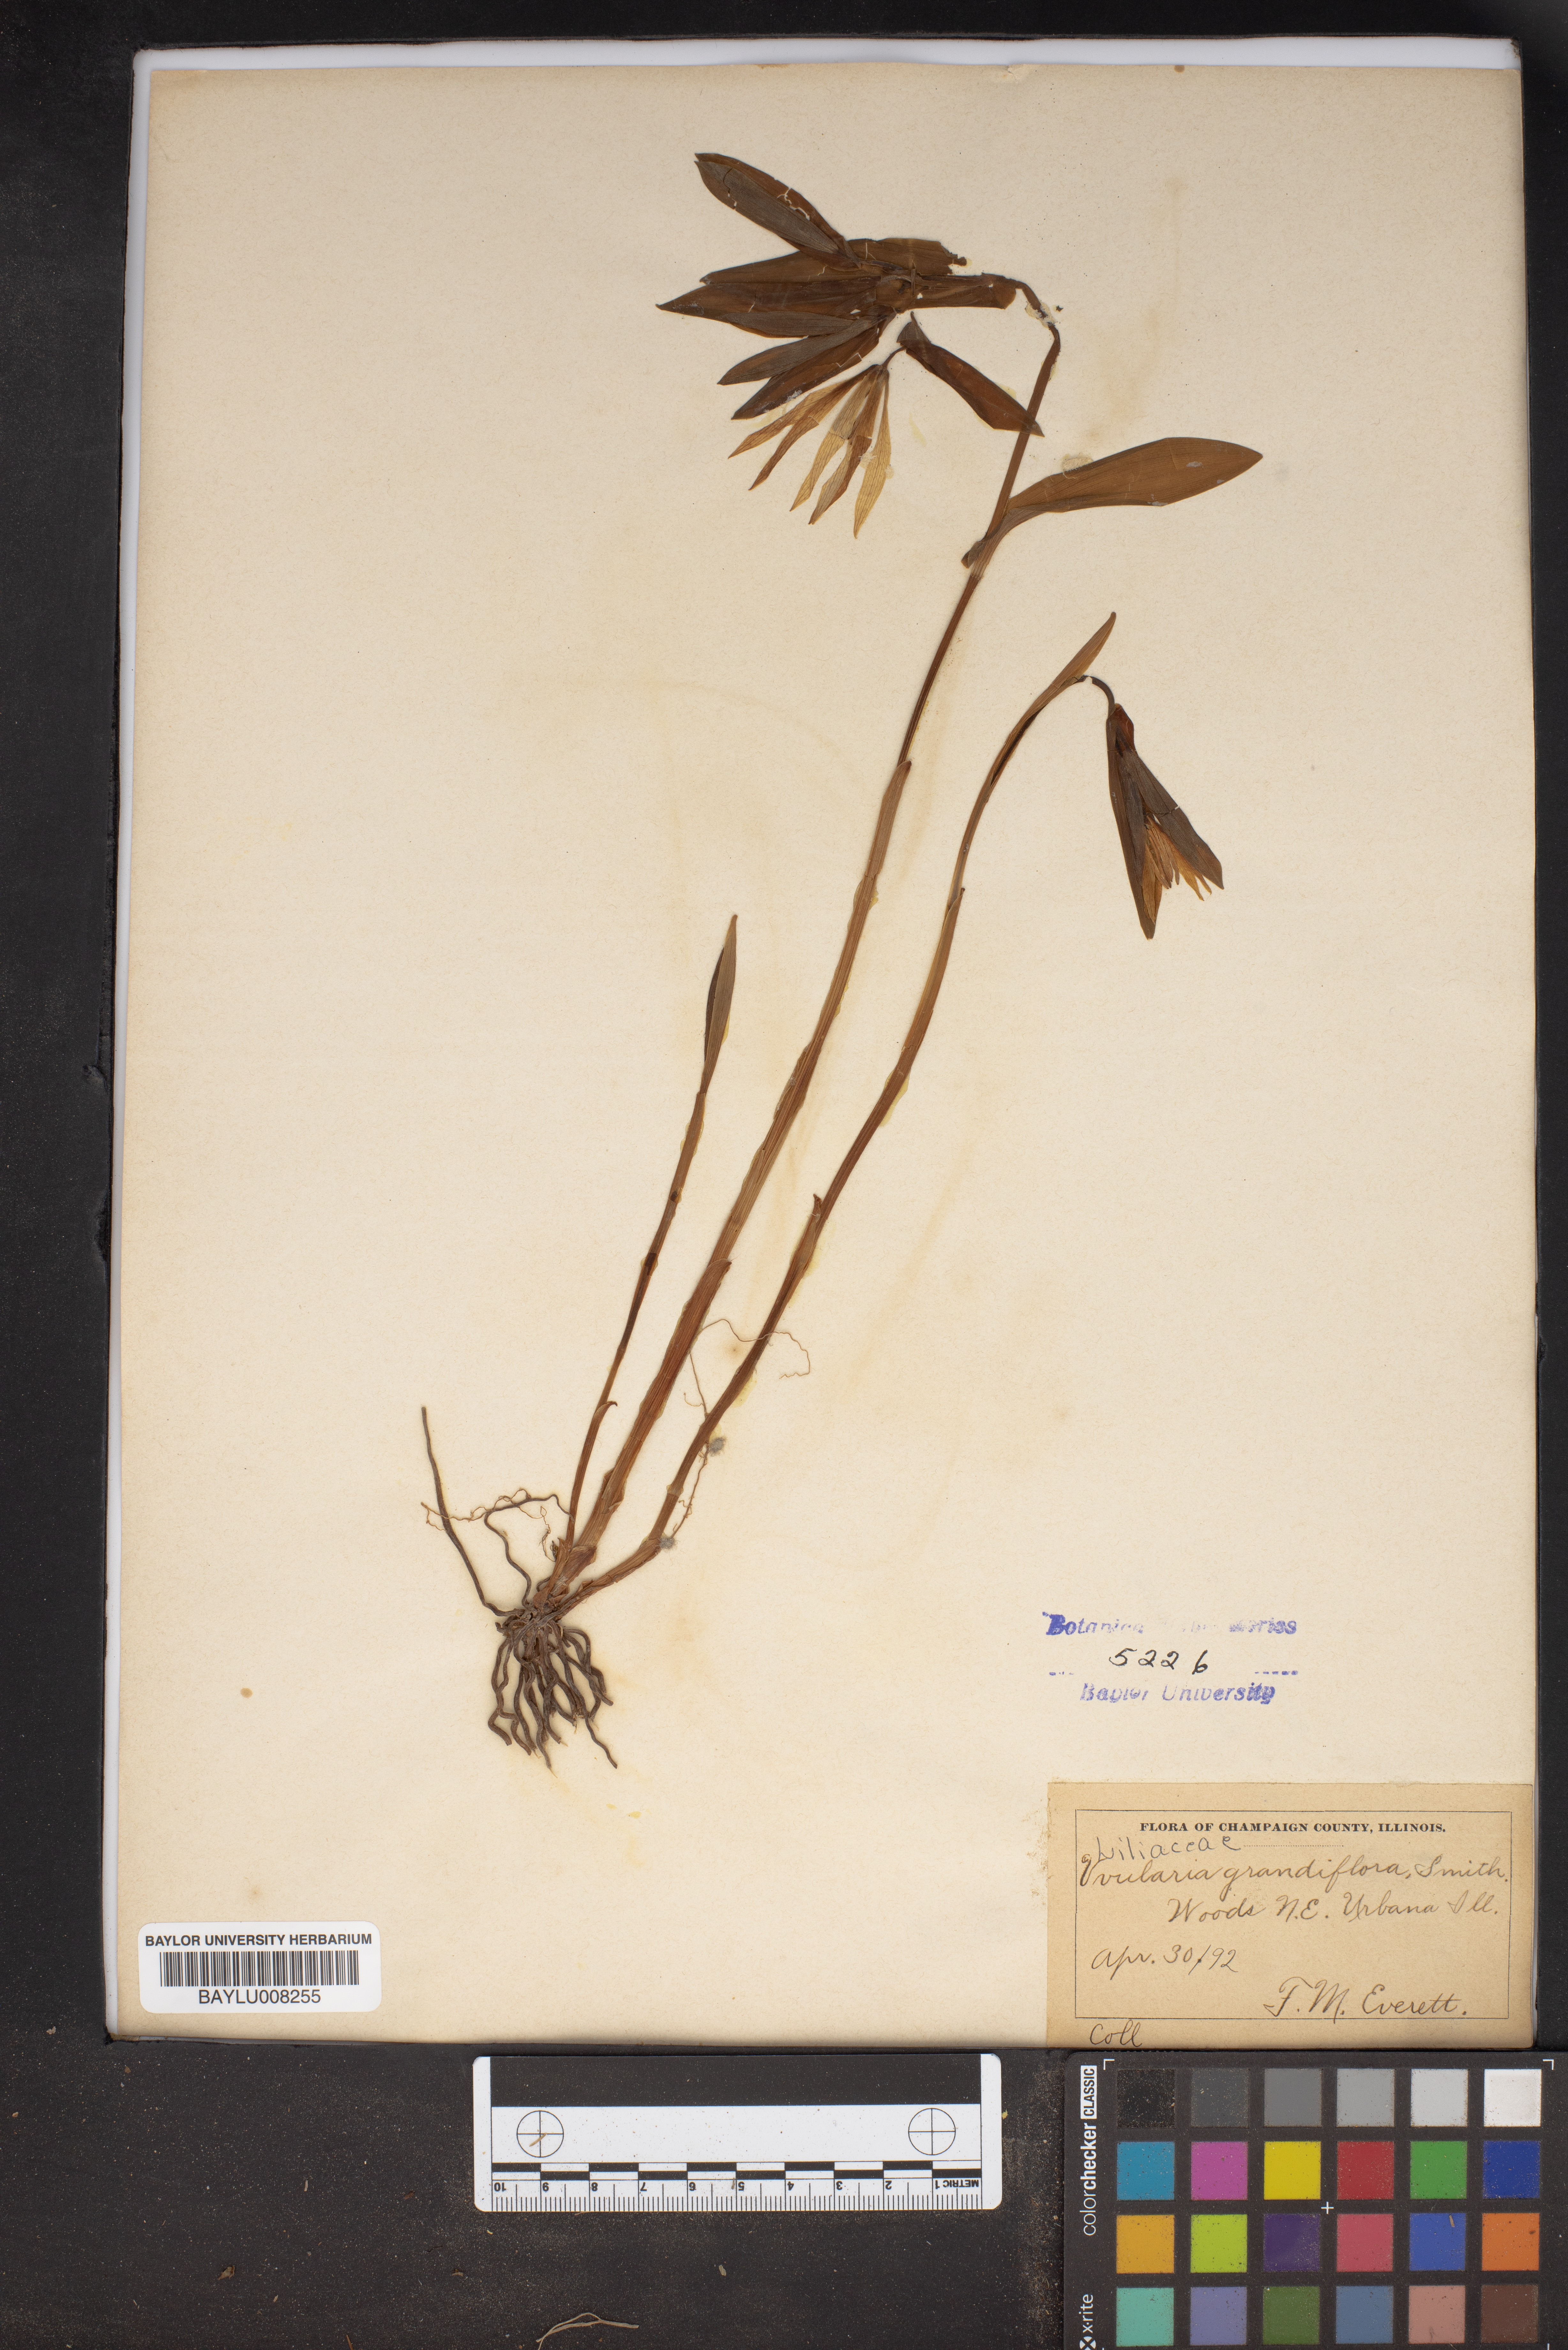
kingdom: Plantae
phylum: Tracheophyta
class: Liliopsida
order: Liliales
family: Colchicaceae
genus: Uvularia
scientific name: Uvularia grandiflora
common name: Bellwort
